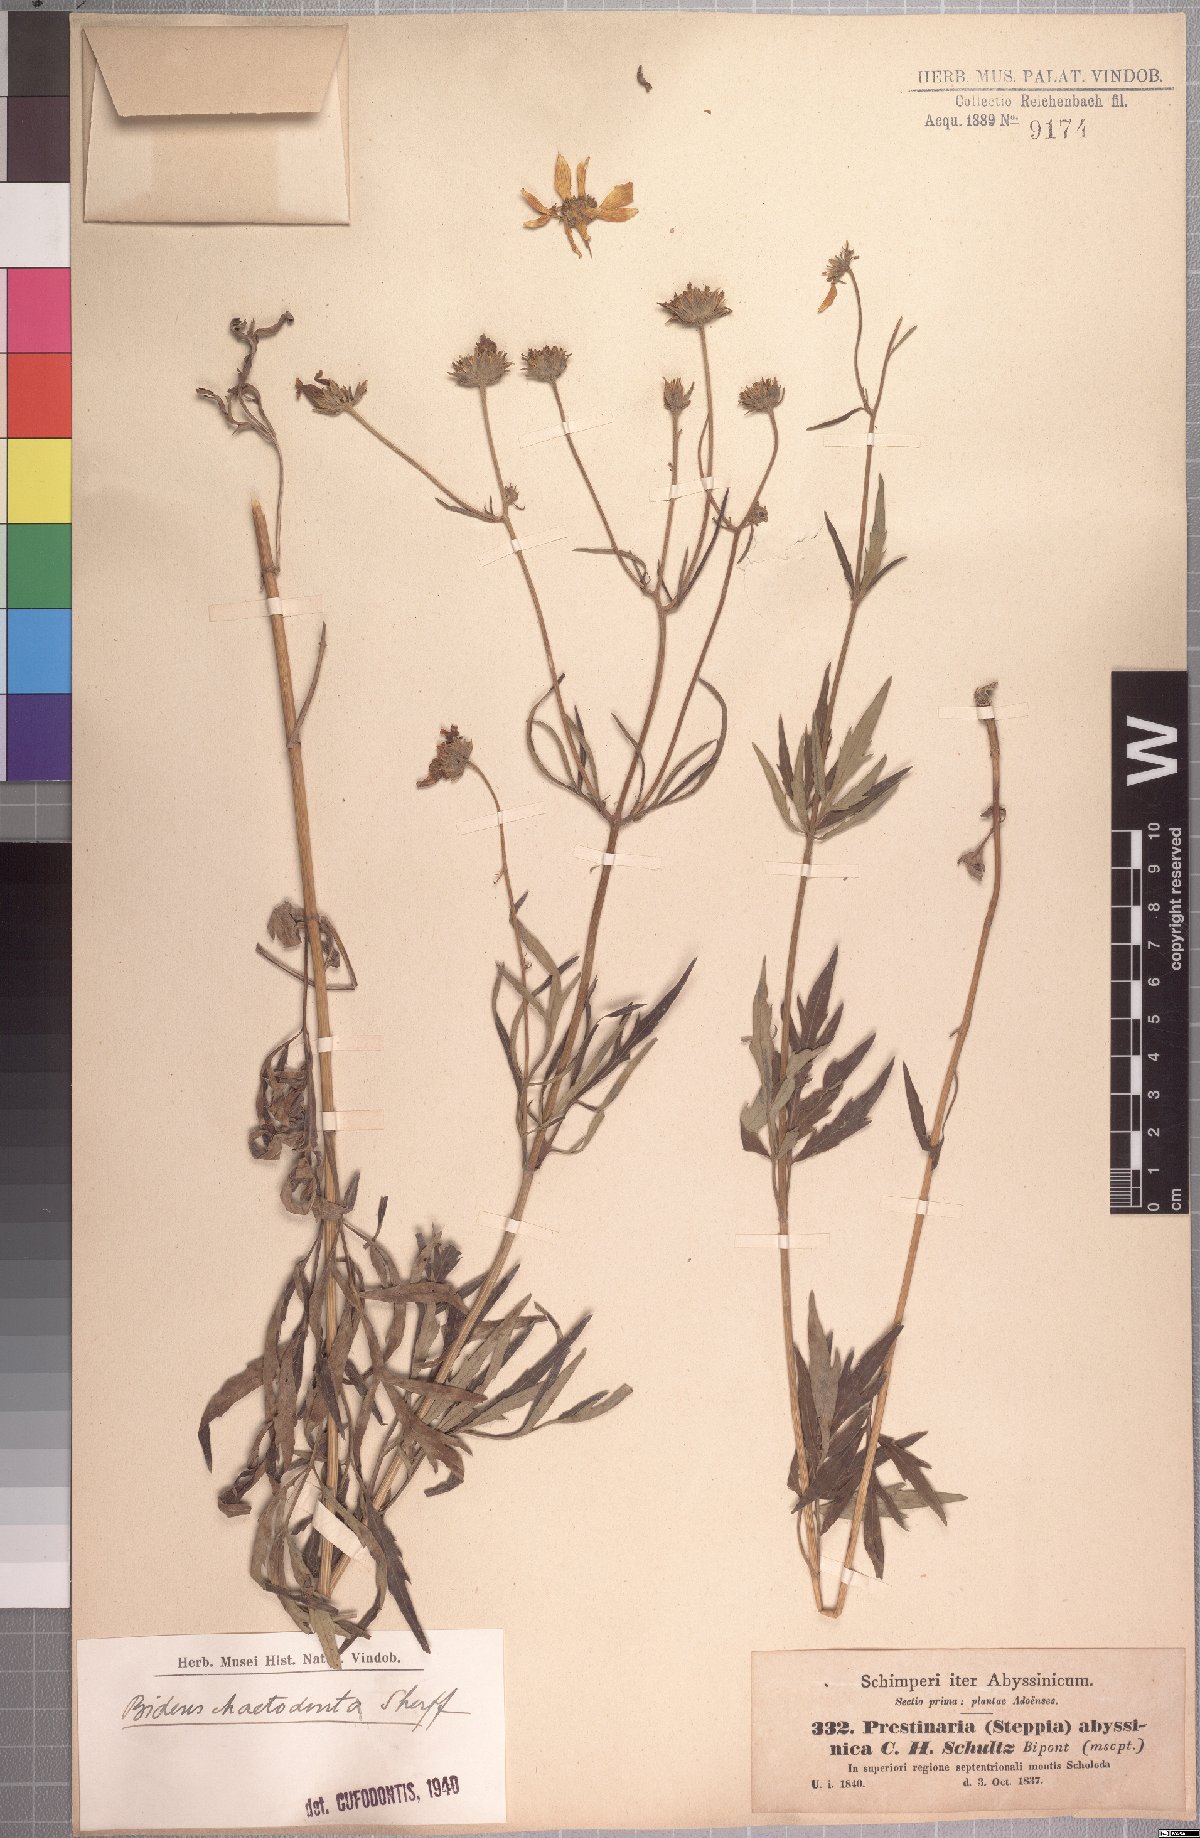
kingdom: Plantae
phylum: Tracheophyta
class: Magnoliopsida
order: Asterales
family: Asteraceae
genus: Bidens
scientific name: Bidens camporum
